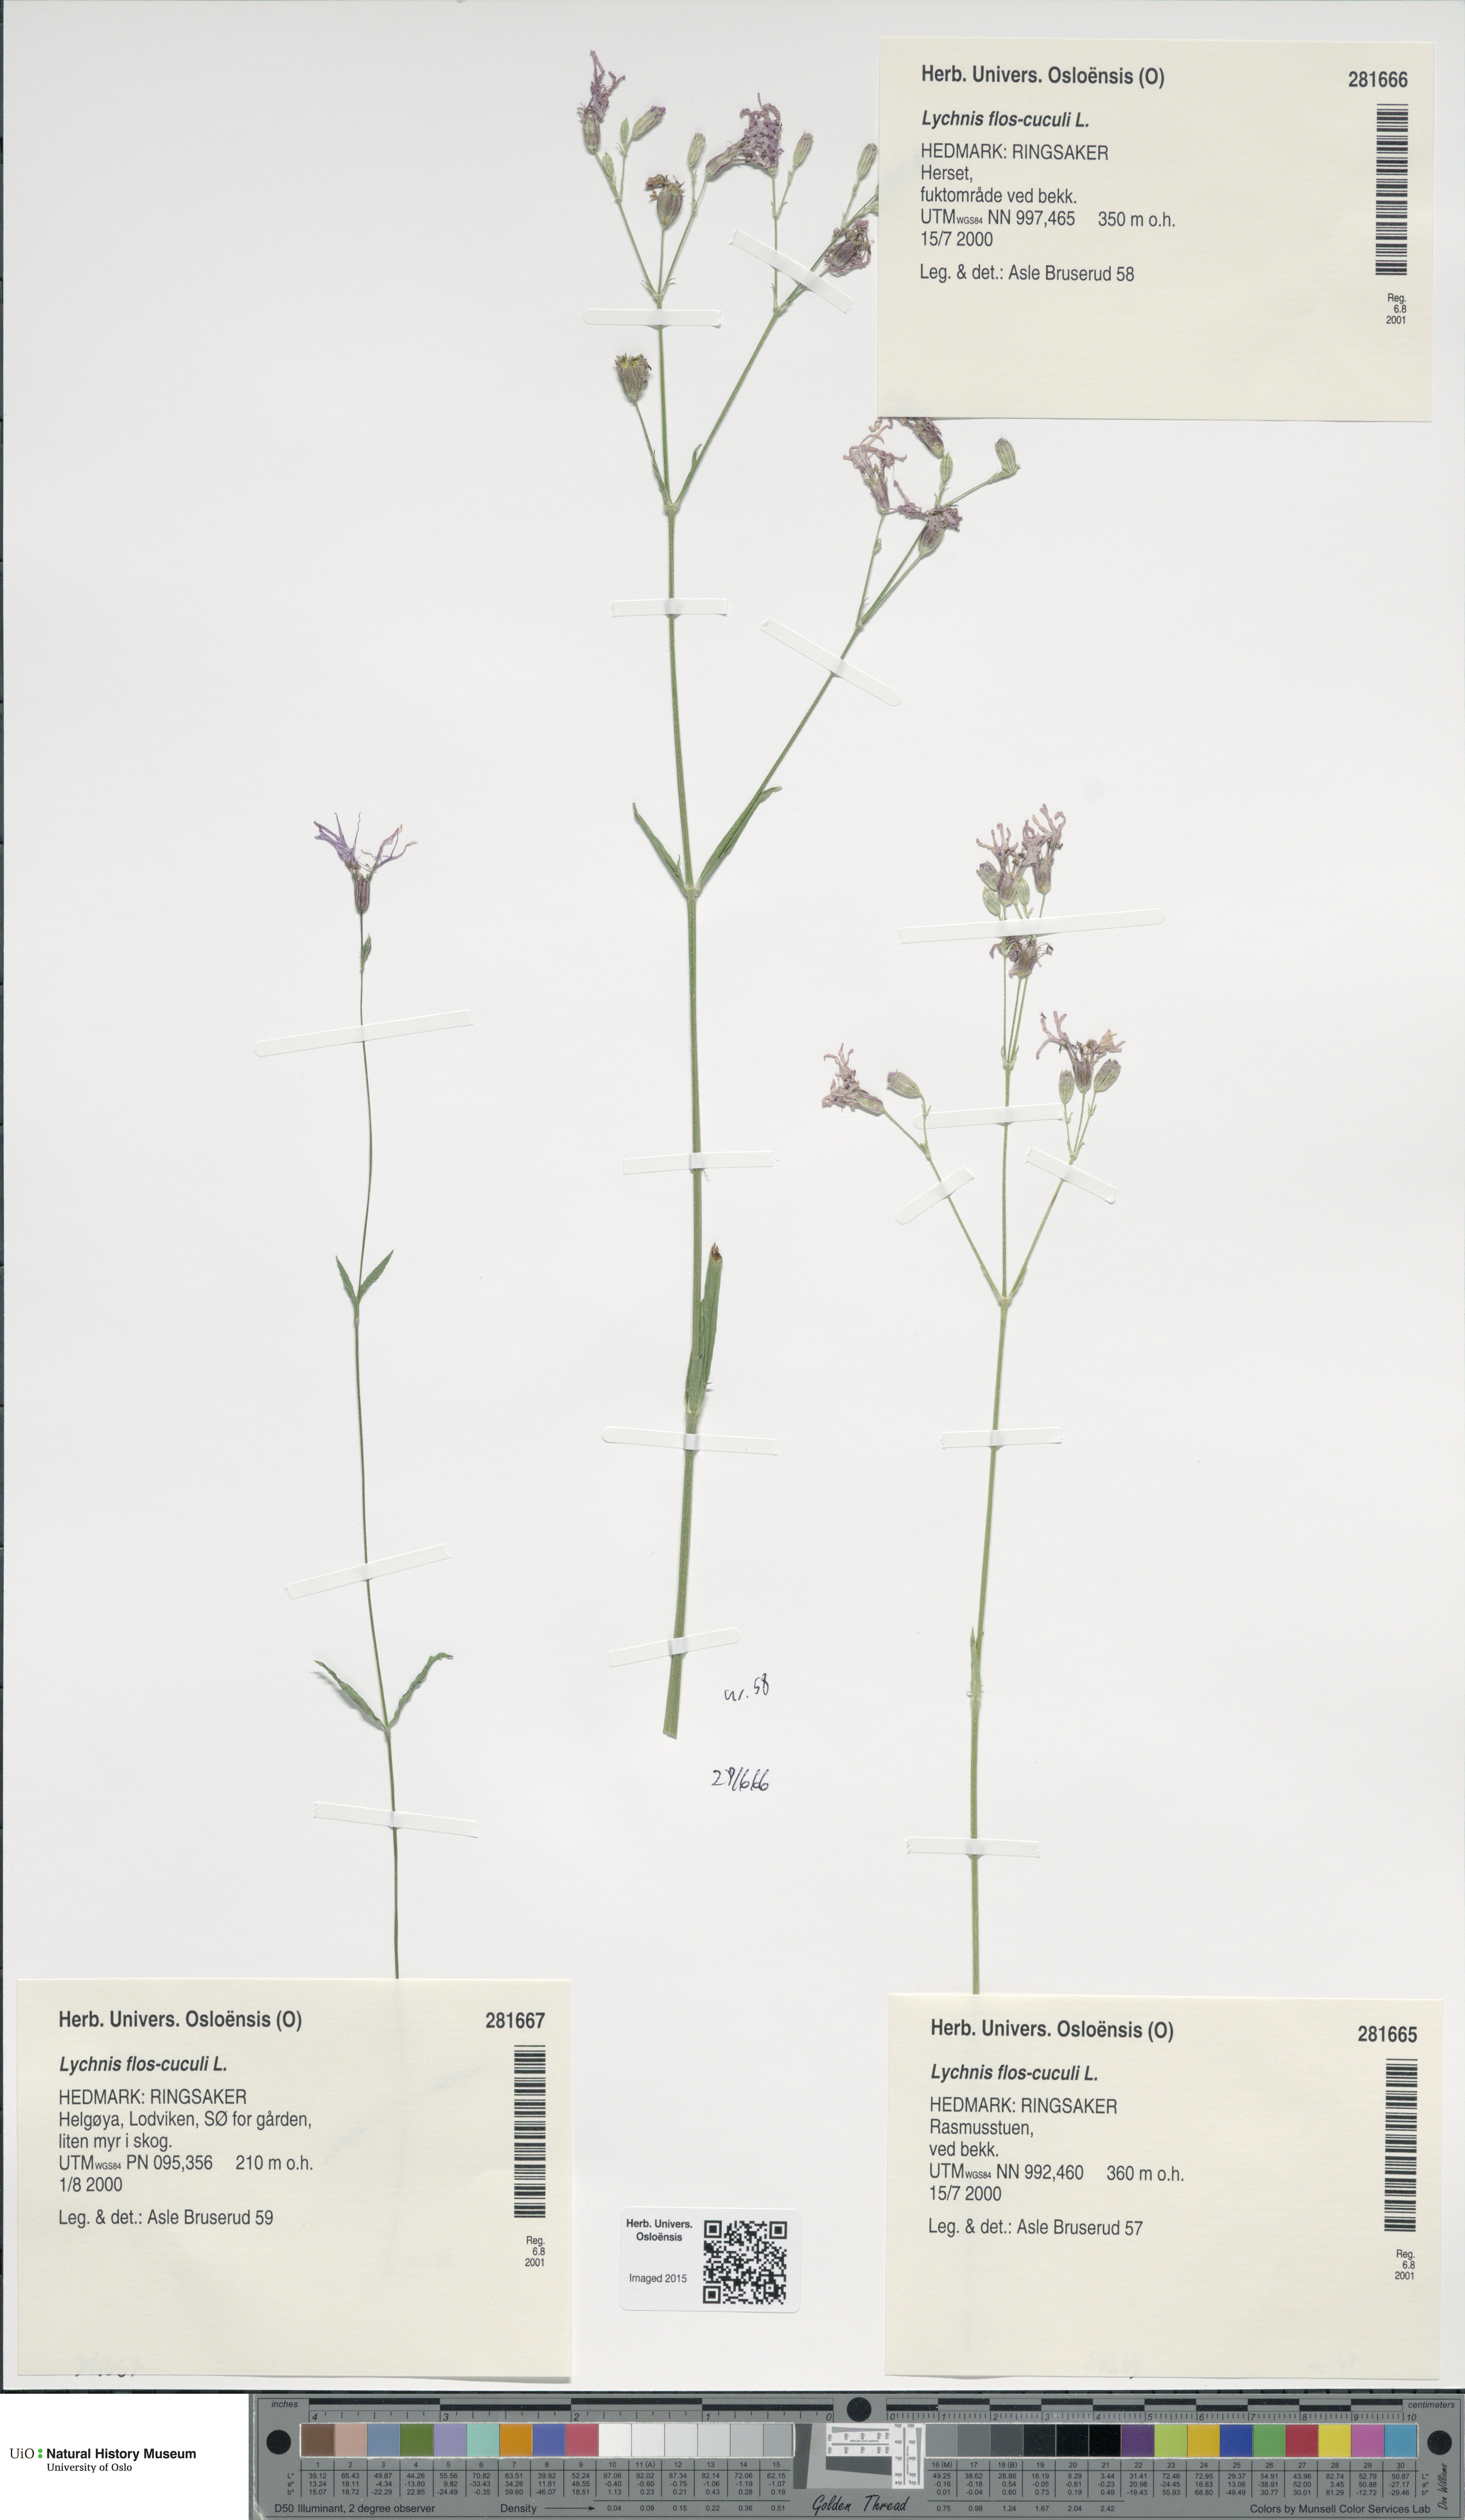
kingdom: Plantae
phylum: Tracheophyta
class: Magnoliopsida
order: Caryophyllales
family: Caryophyllaceae
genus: Silene
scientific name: Silene flos-cuculi
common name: Ragged-robin
